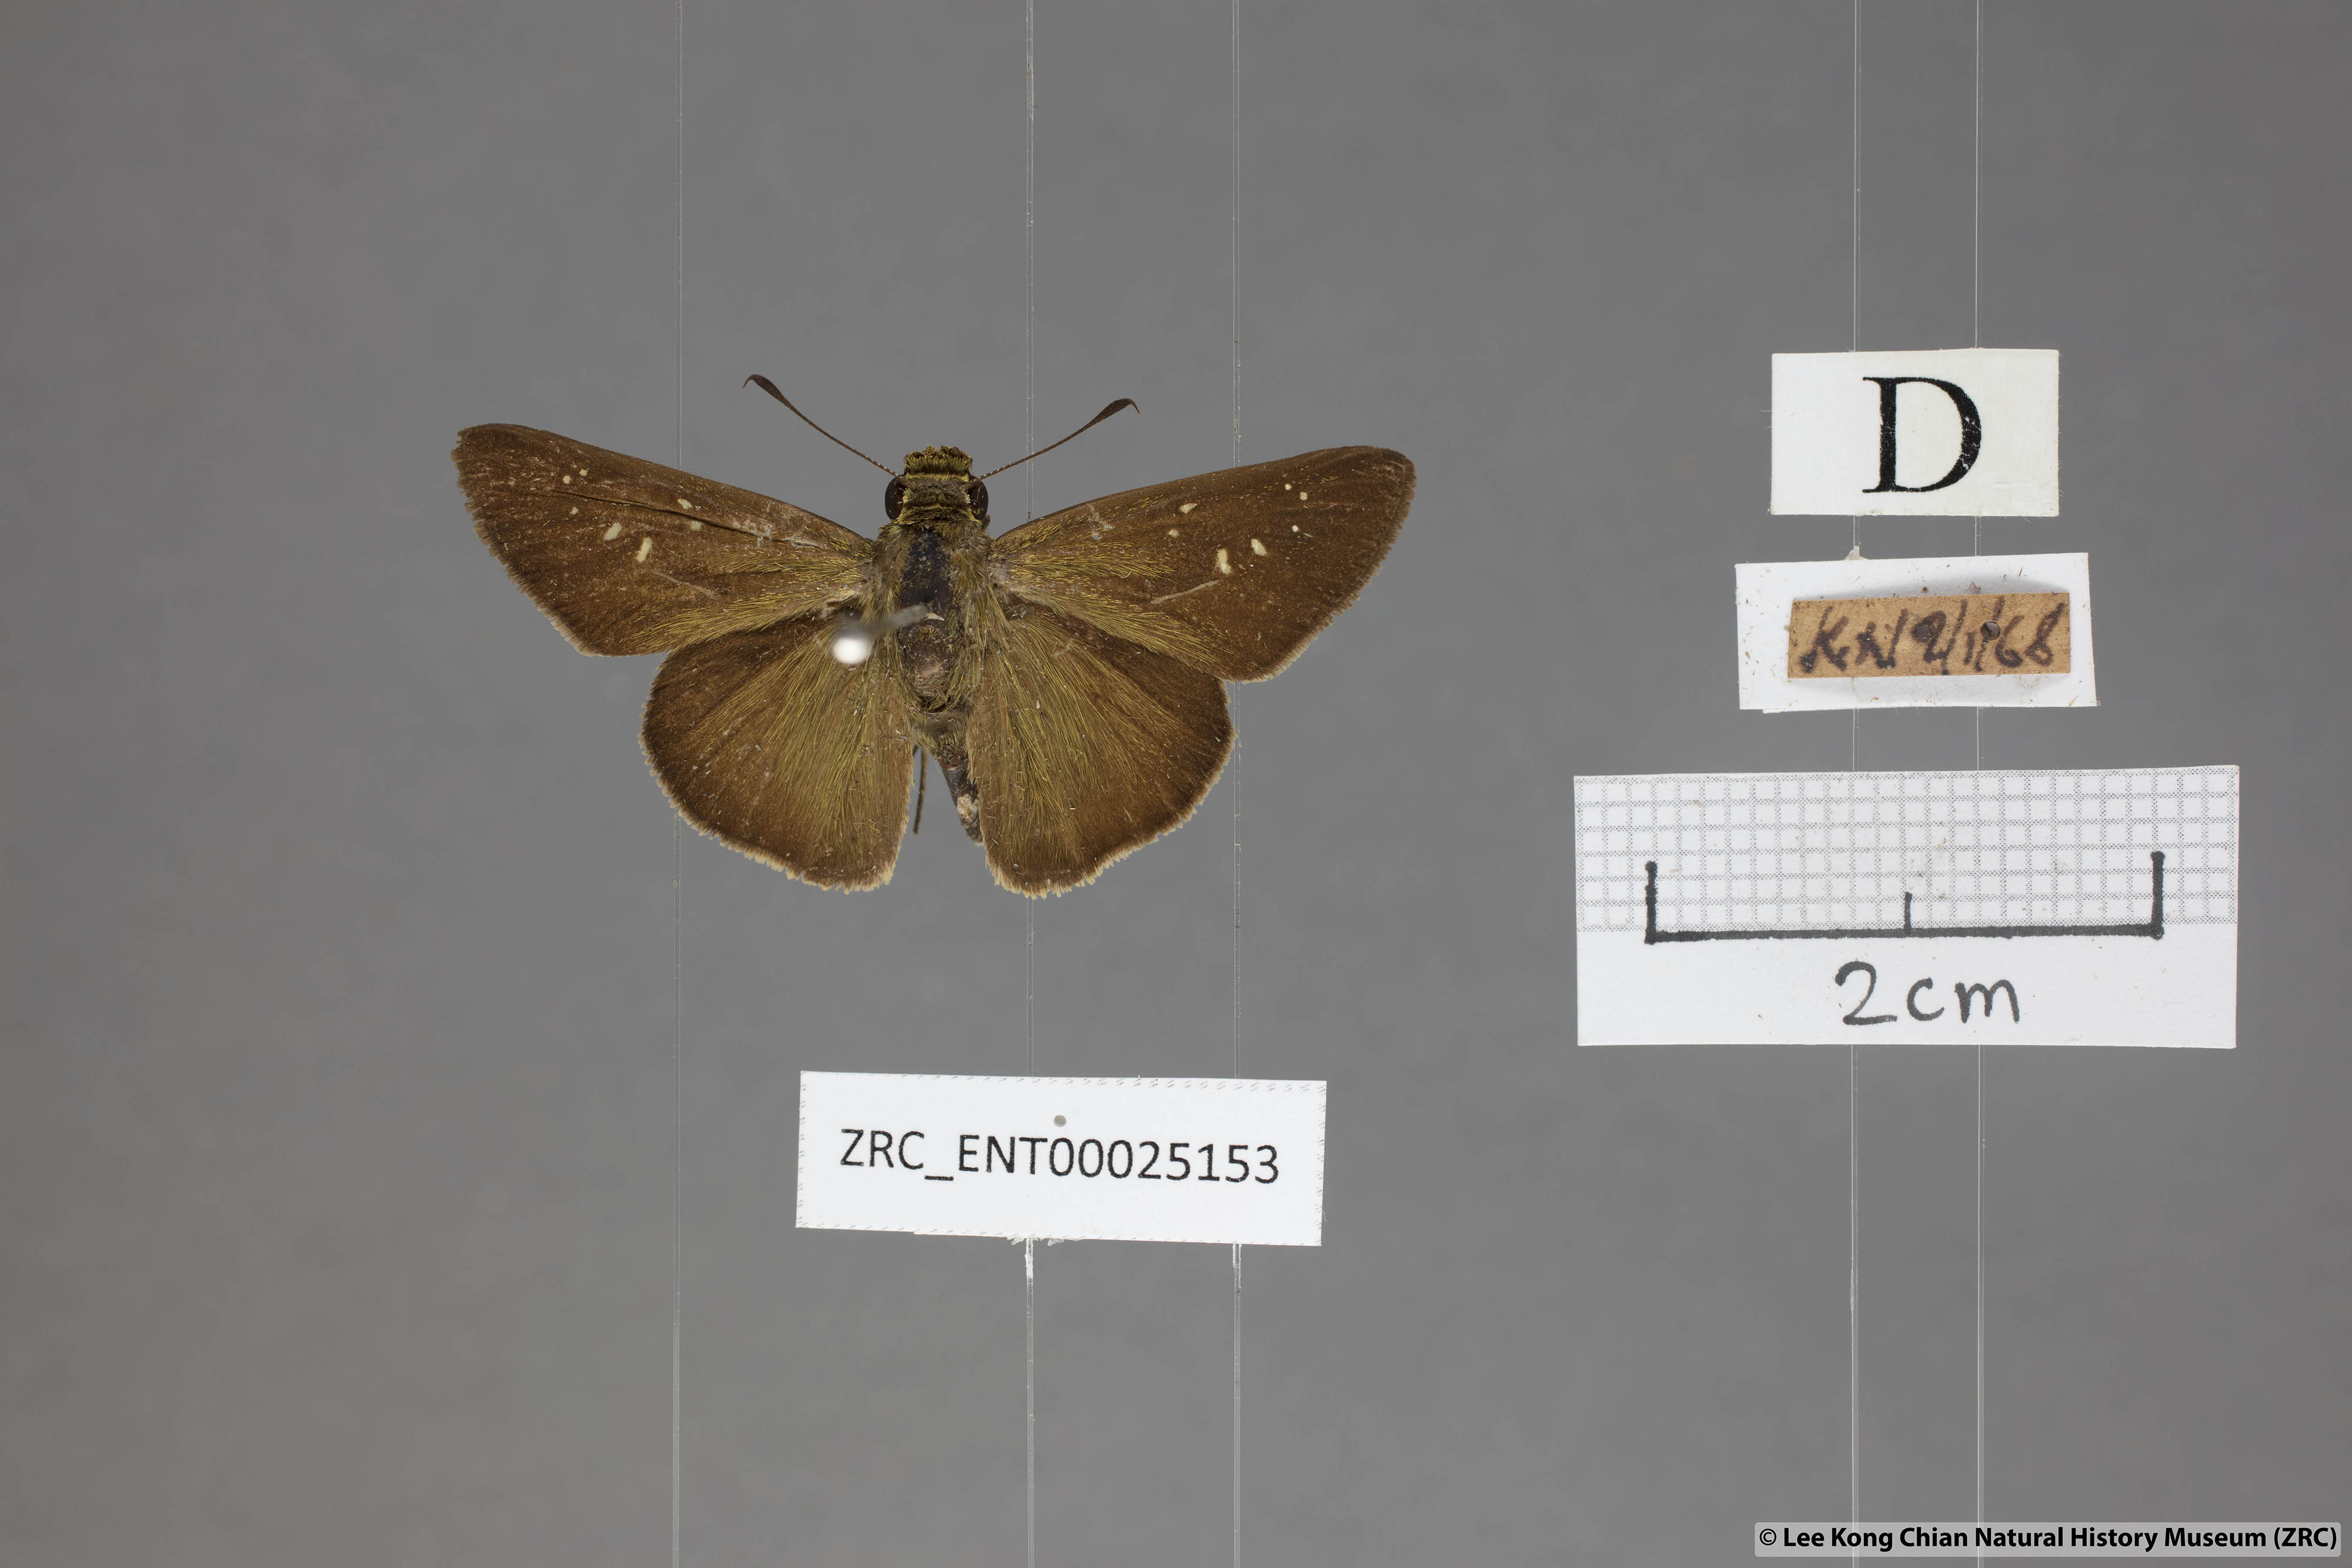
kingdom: Animalia
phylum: Arthropoda
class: Insecta
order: Lepidoptera
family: Hesperiidae
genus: Pelopidas
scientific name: Pelopidas mathias
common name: Black-branded swift
